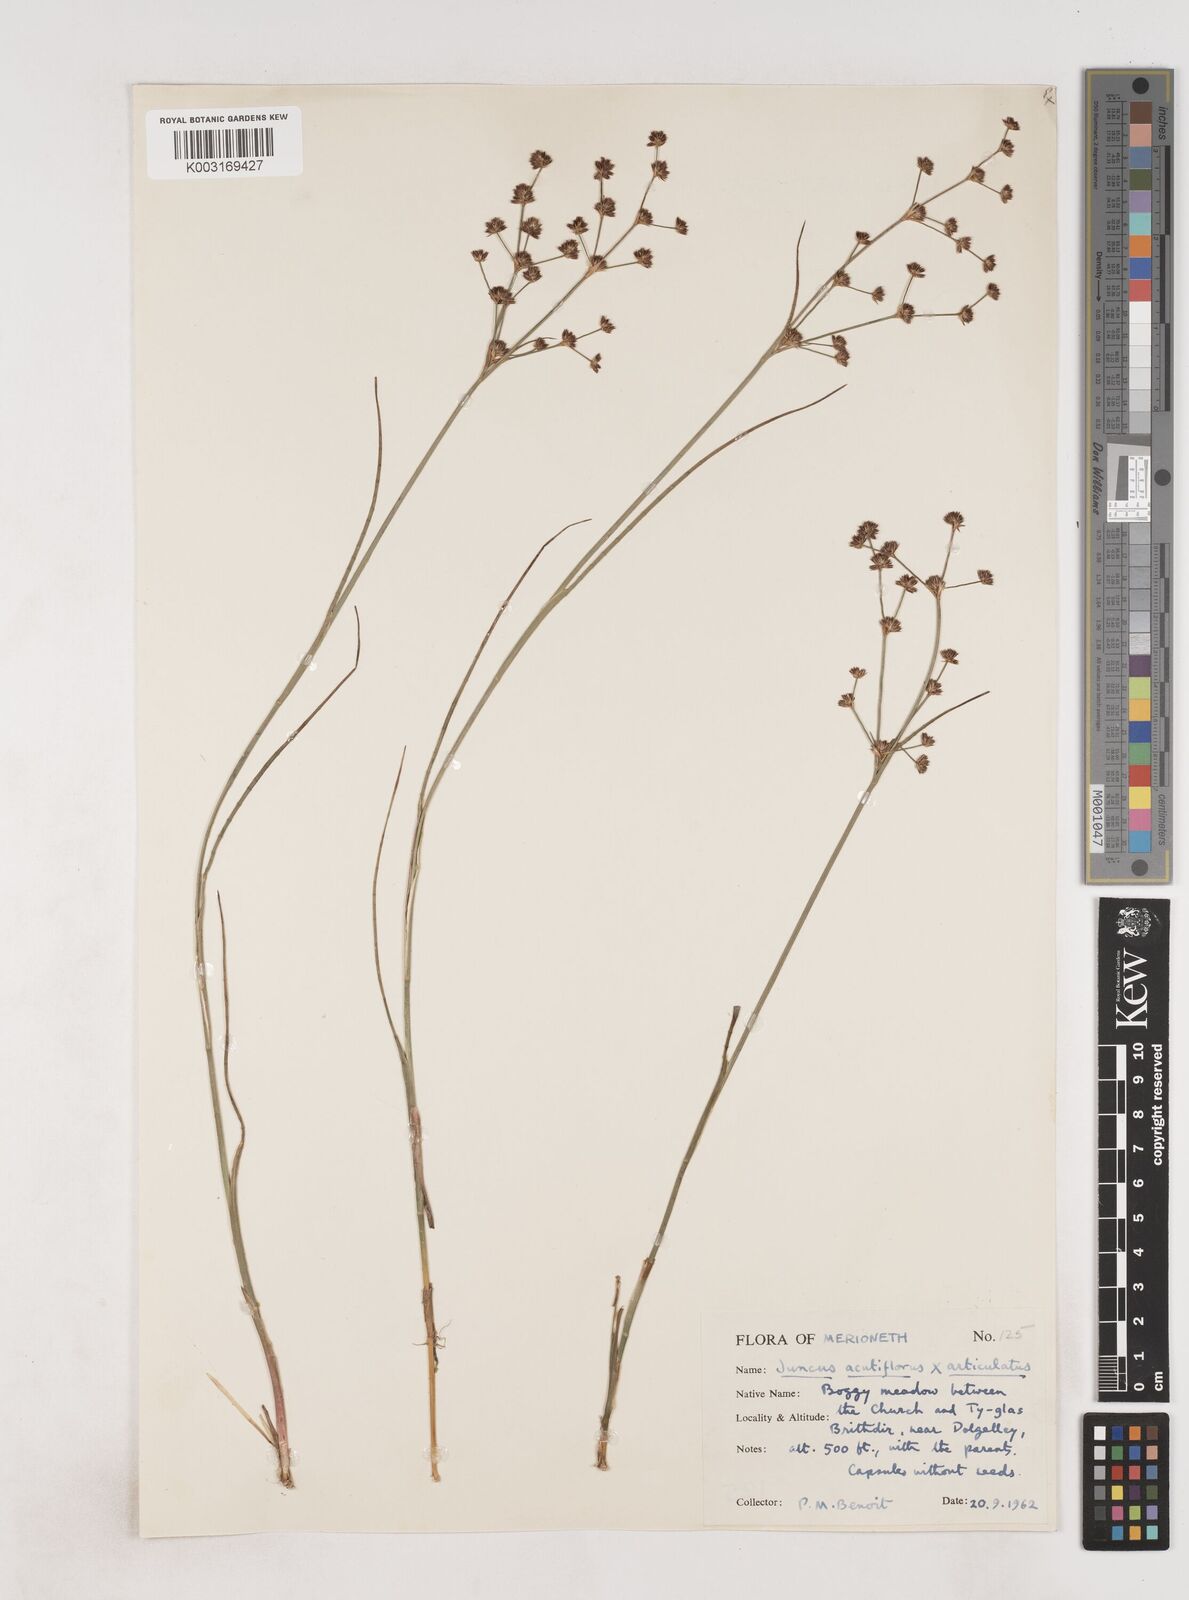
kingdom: Plantae
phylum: Tracheophyta
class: Liliopsida
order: Poales
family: Juncaceae
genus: Juncus
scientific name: Juncus acutiflorus
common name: Sharp-flowered rush
